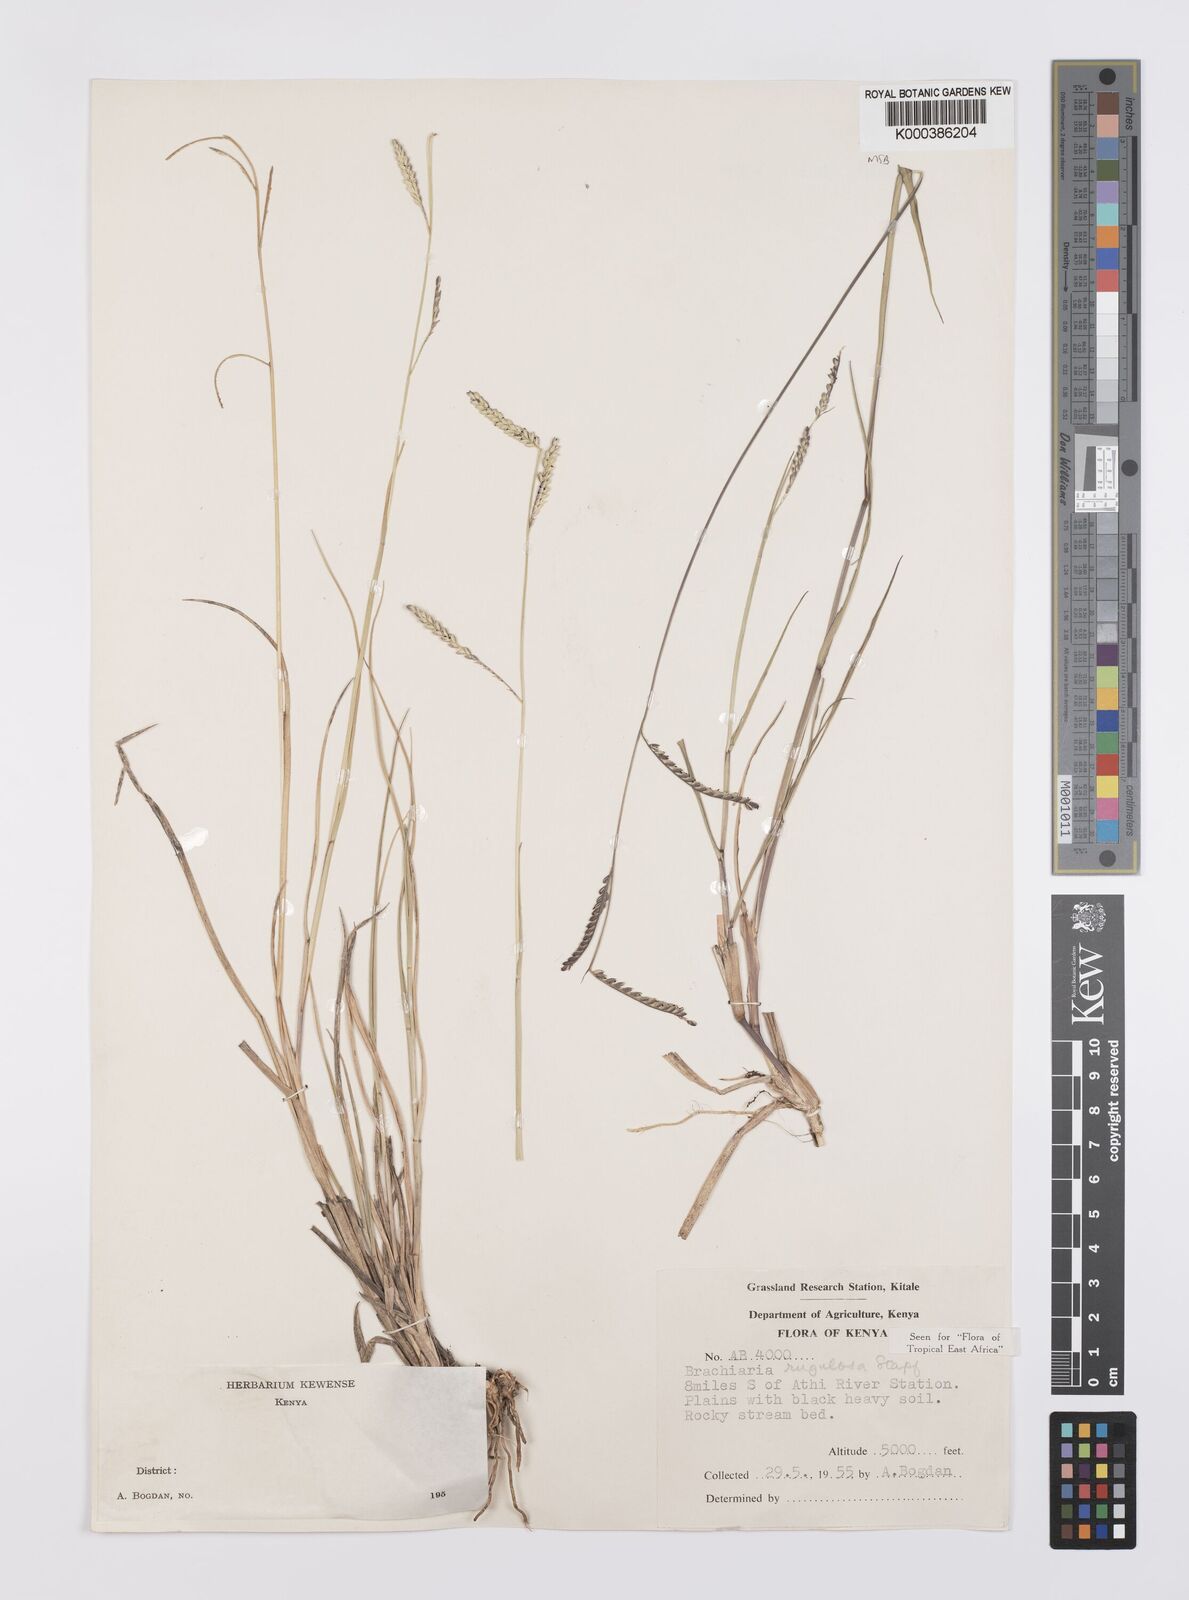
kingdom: Plantae
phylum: Tracheophyta
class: Liliopsida
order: Poales
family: Poaceae
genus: Urochloa
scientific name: Urochloa rugulosa
